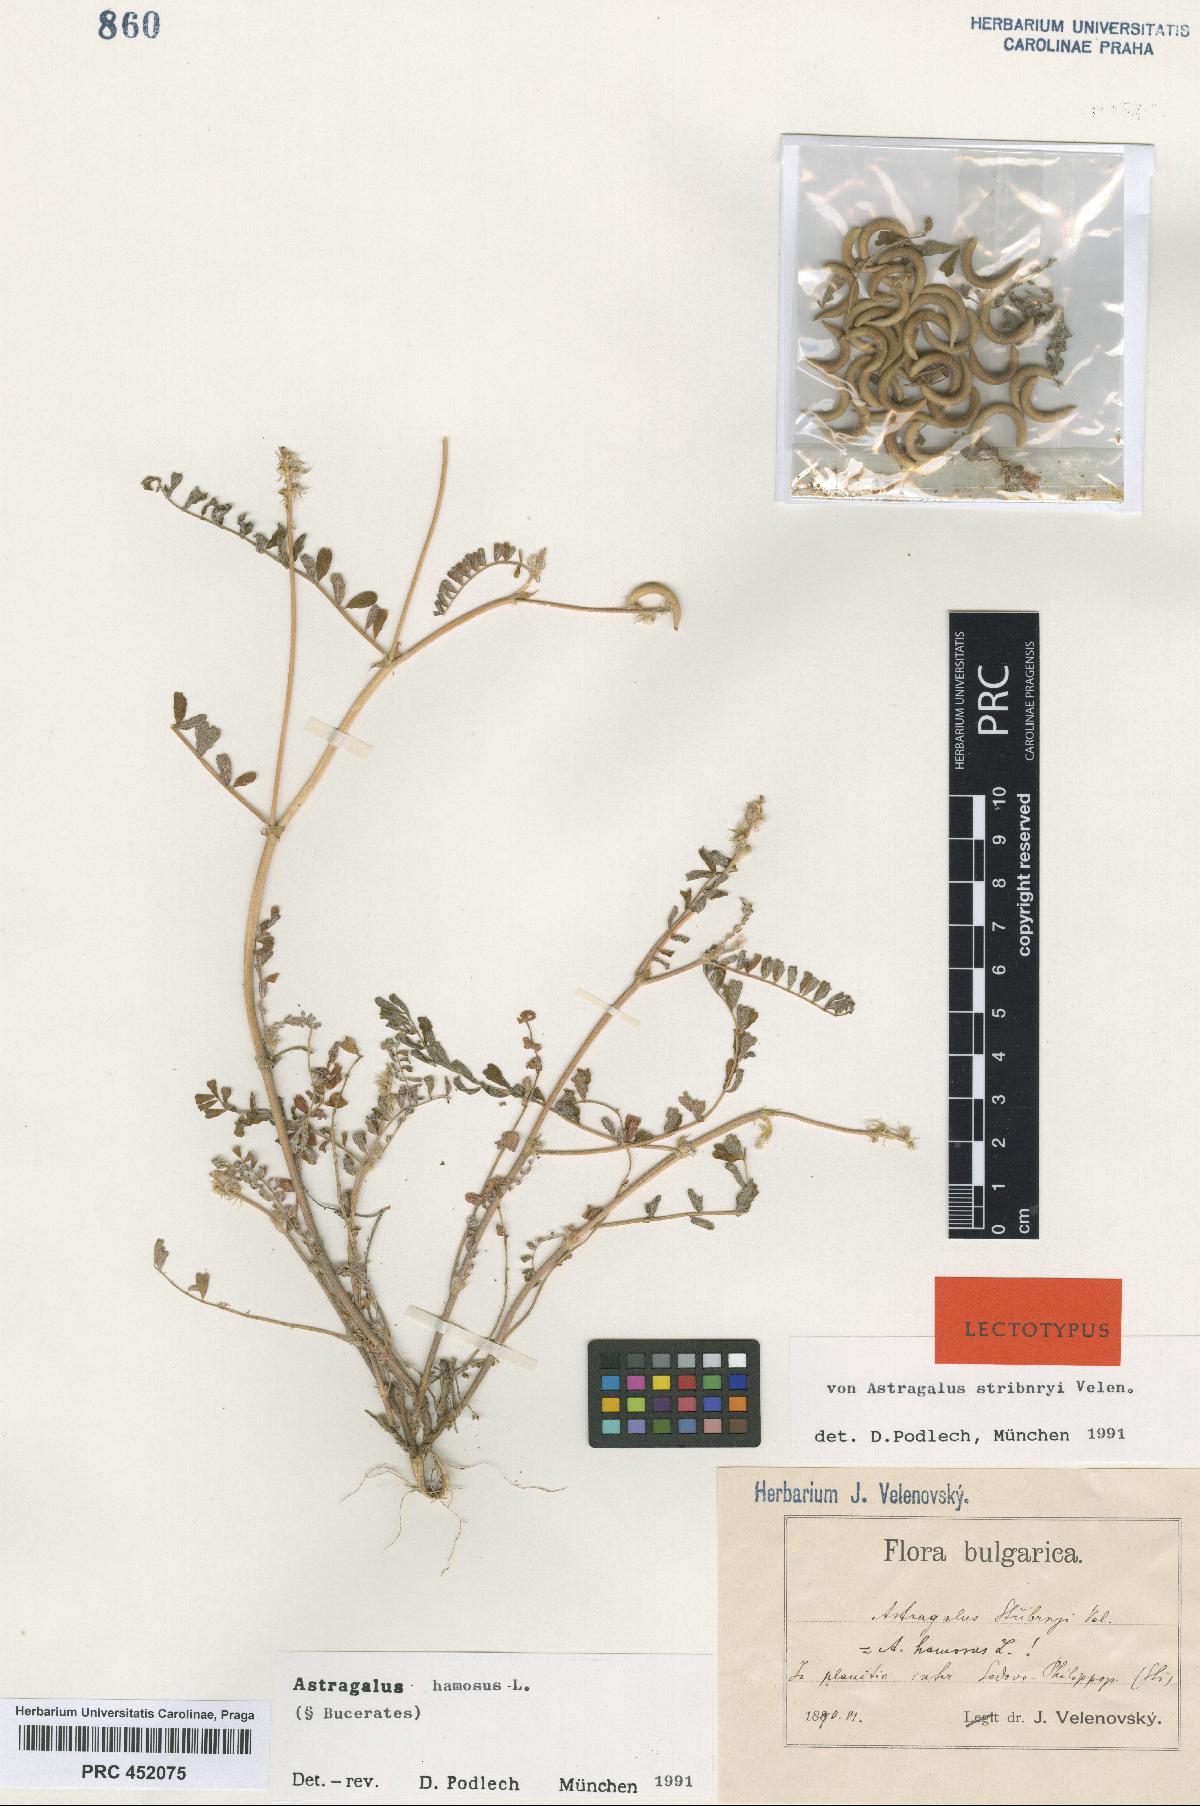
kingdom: Plantae
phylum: Tracheophyta
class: Magnoliopsida
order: Fabales
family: Fabaceae
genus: Astragalus
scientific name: Astragalus hamosus
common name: European milkvetch
